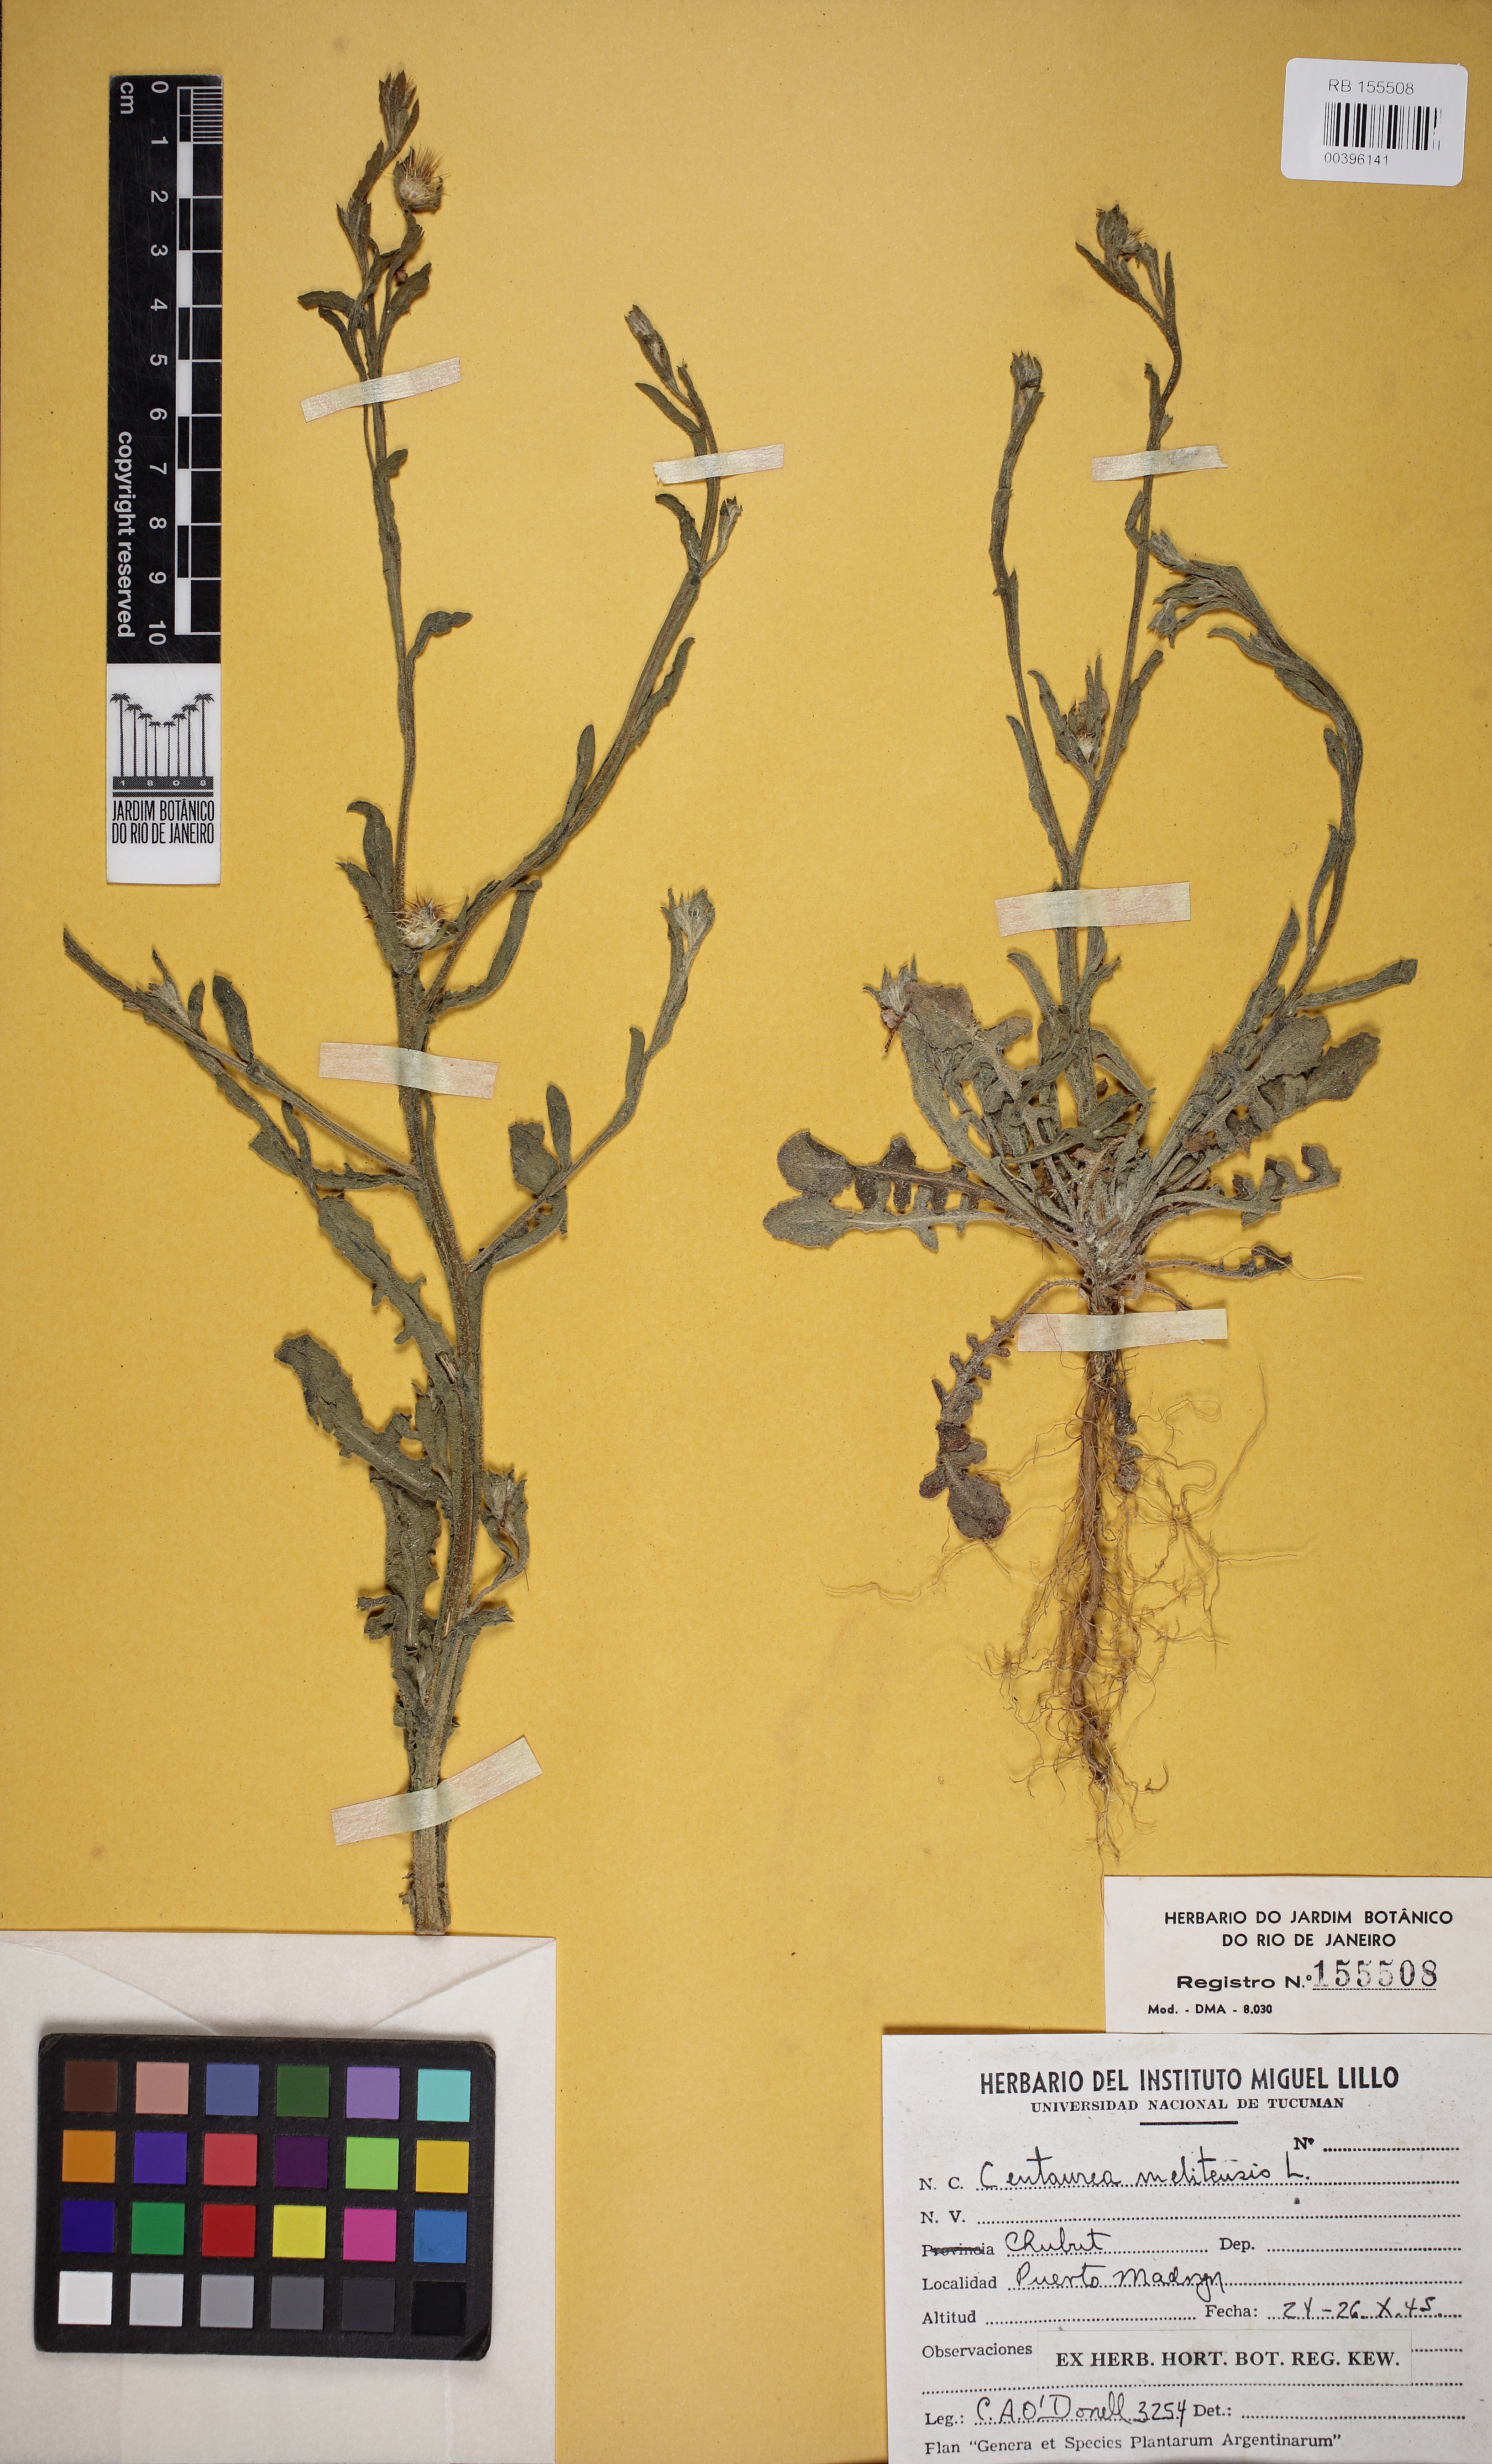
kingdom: Plantae
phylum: Tracheophyta
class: Magnoliopsida
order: Asterales
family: Asteraceae
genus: Centaurea
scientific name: Centaurea melitensis
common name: Maltese star-thistle
